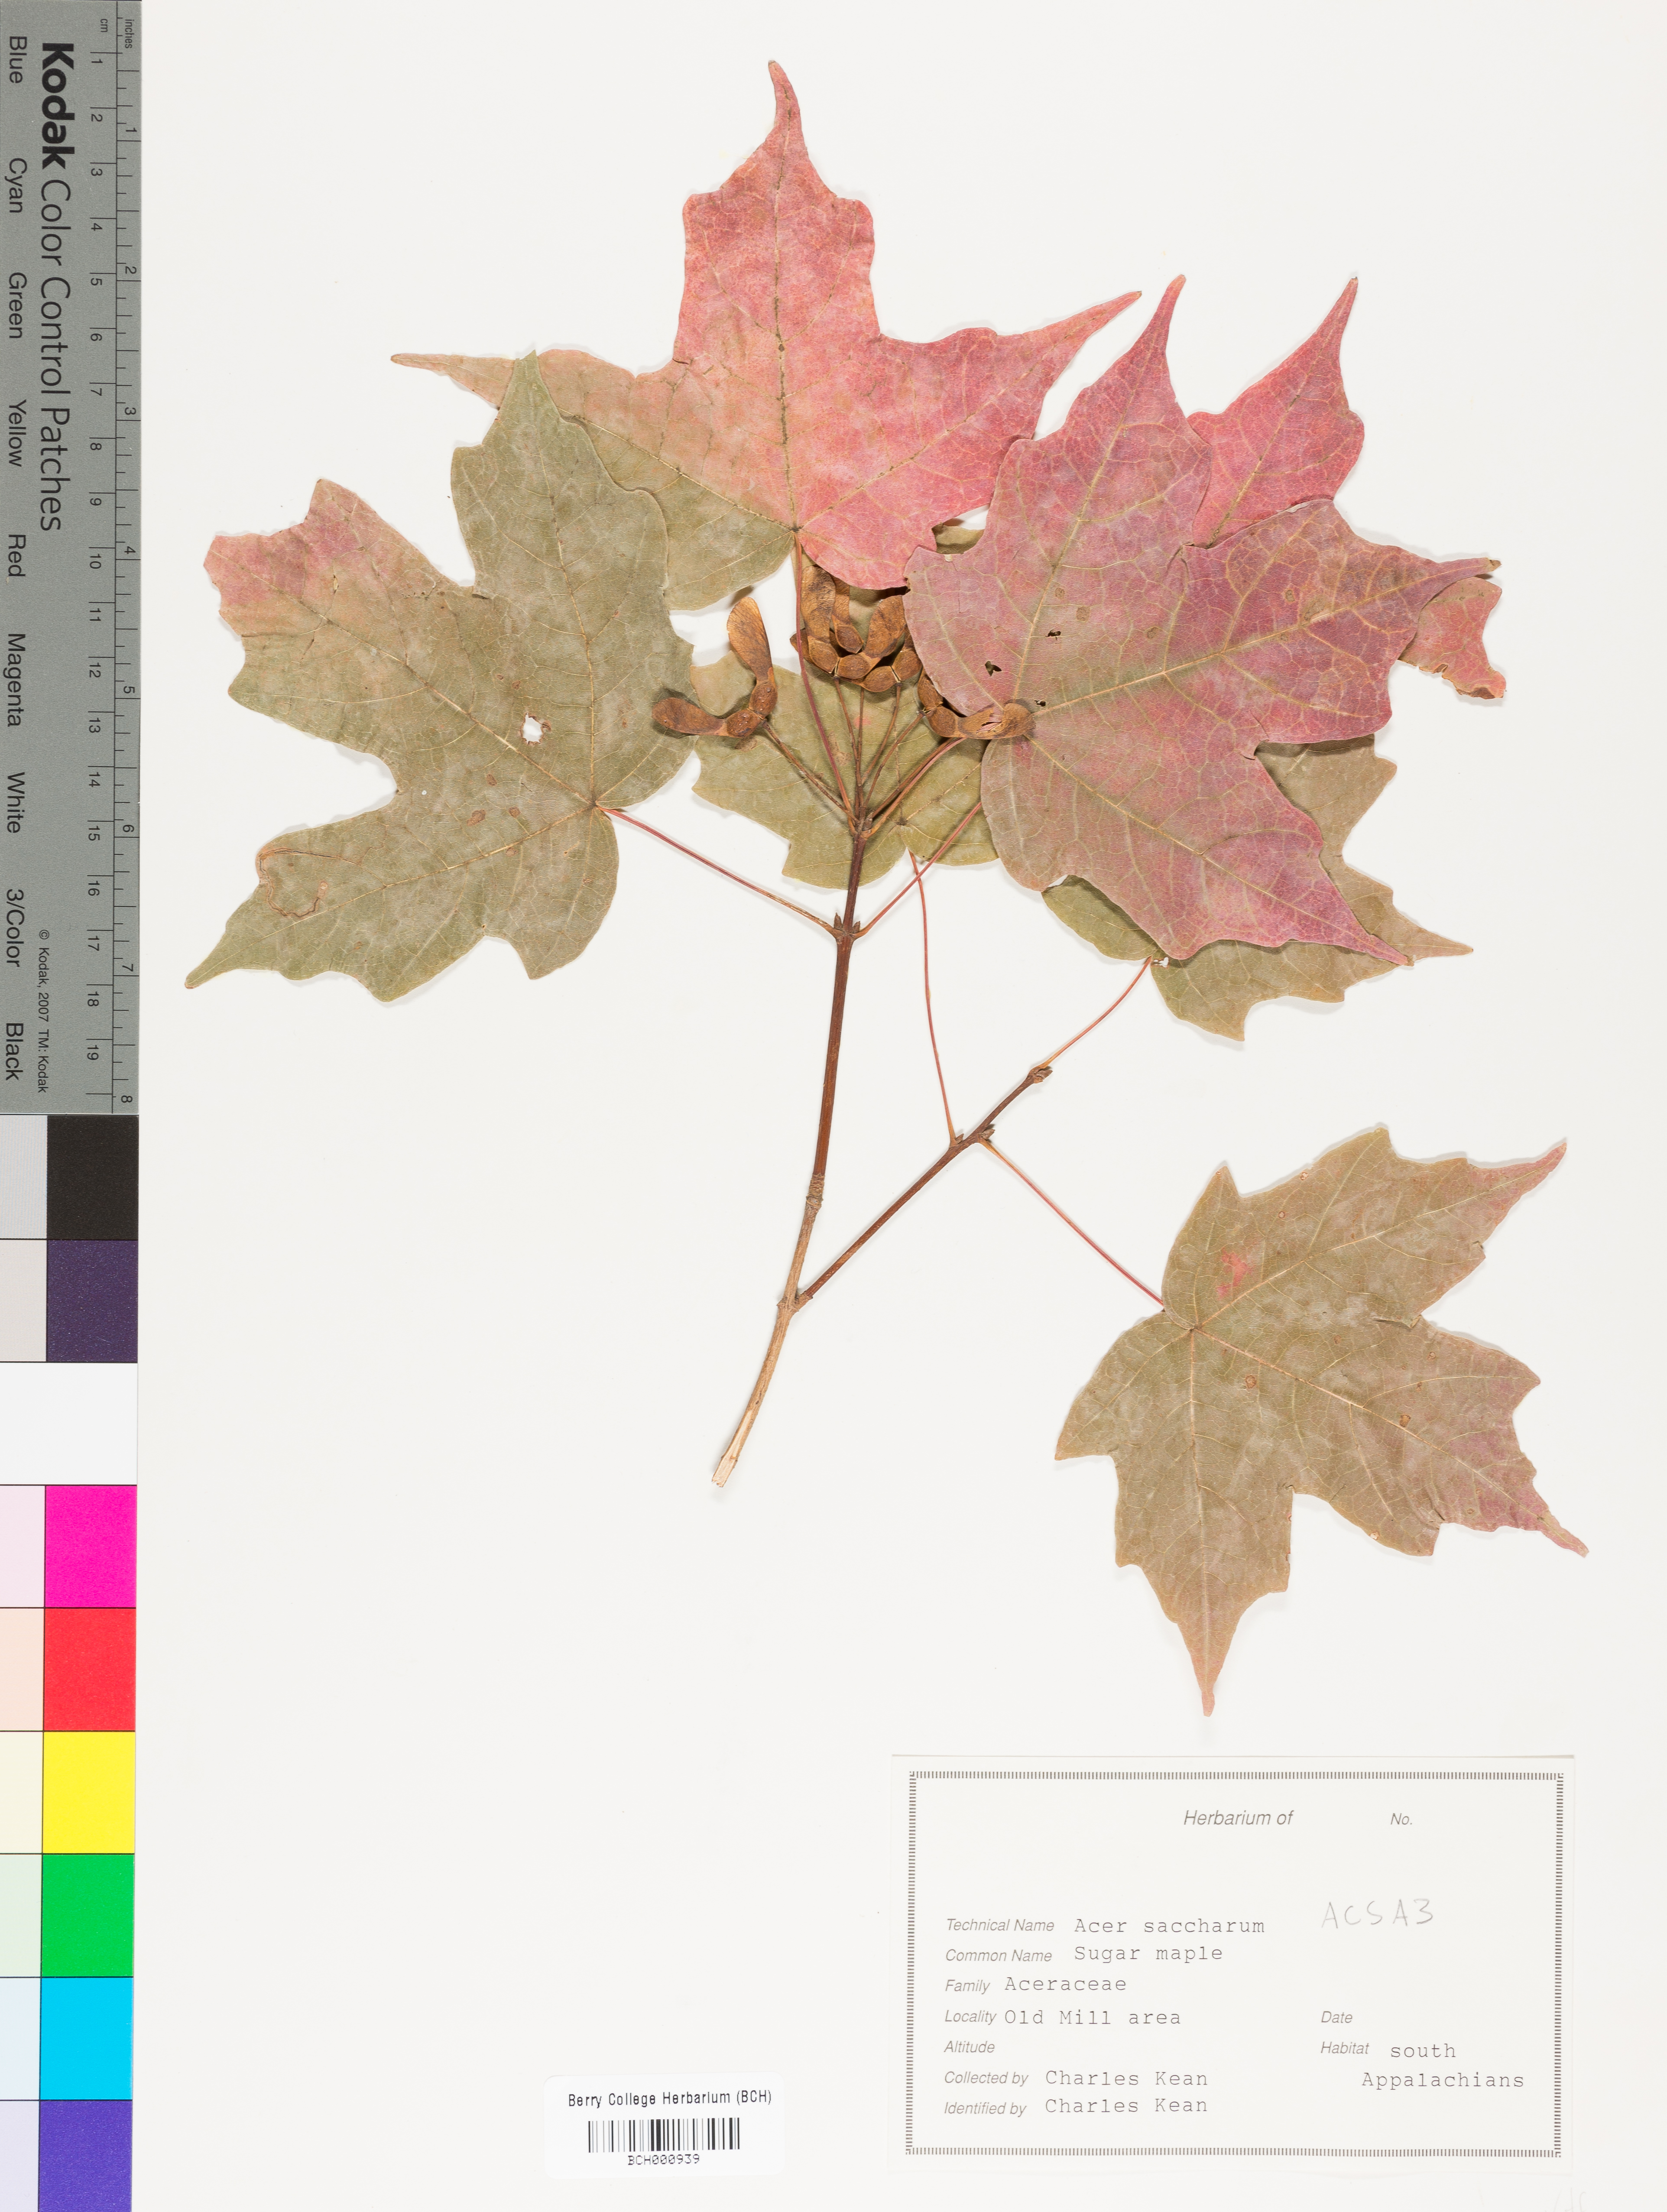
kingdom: Plantae
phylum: Tracheophyta
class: Magnoliopsida
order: Sapindales
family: Sapindaceae
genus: Acer
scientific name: Acer saccharum
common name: Sugar maple
